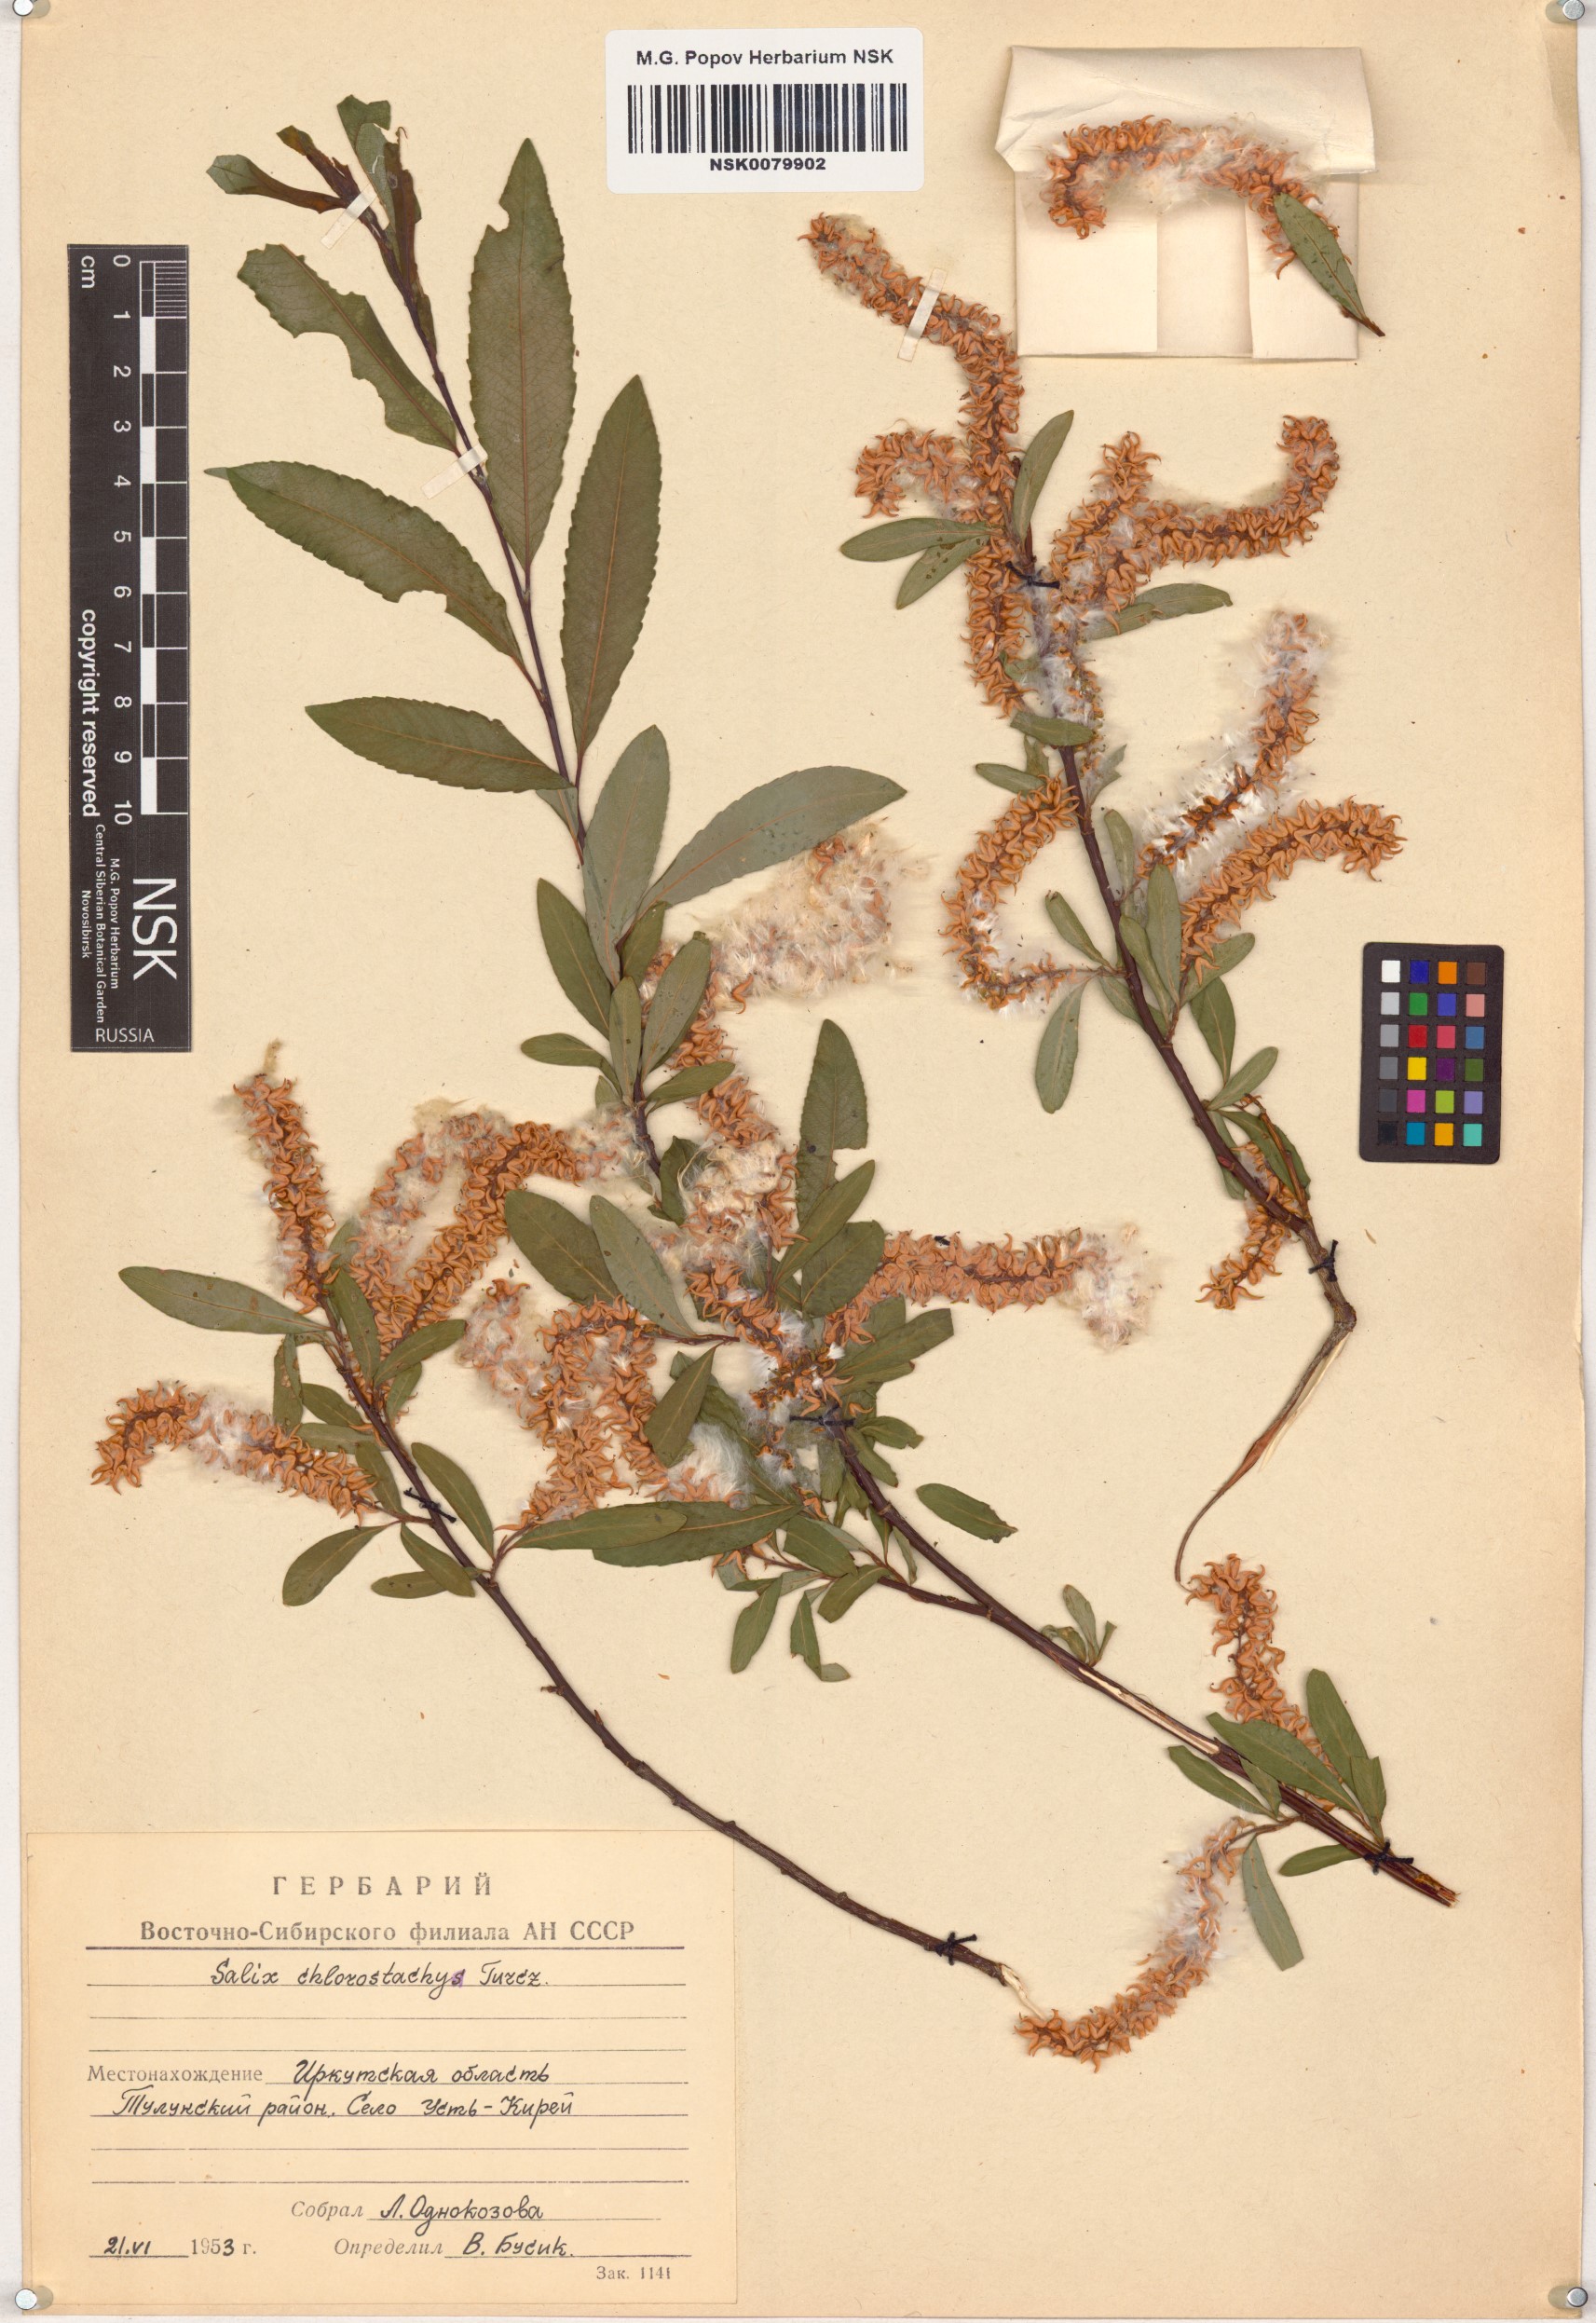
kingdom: Plantae
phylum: Tracheophyta
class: Magnoliopsida
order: Malpighiales
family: Salicaceae
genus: Salix
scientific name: Salix rhamnifolia
